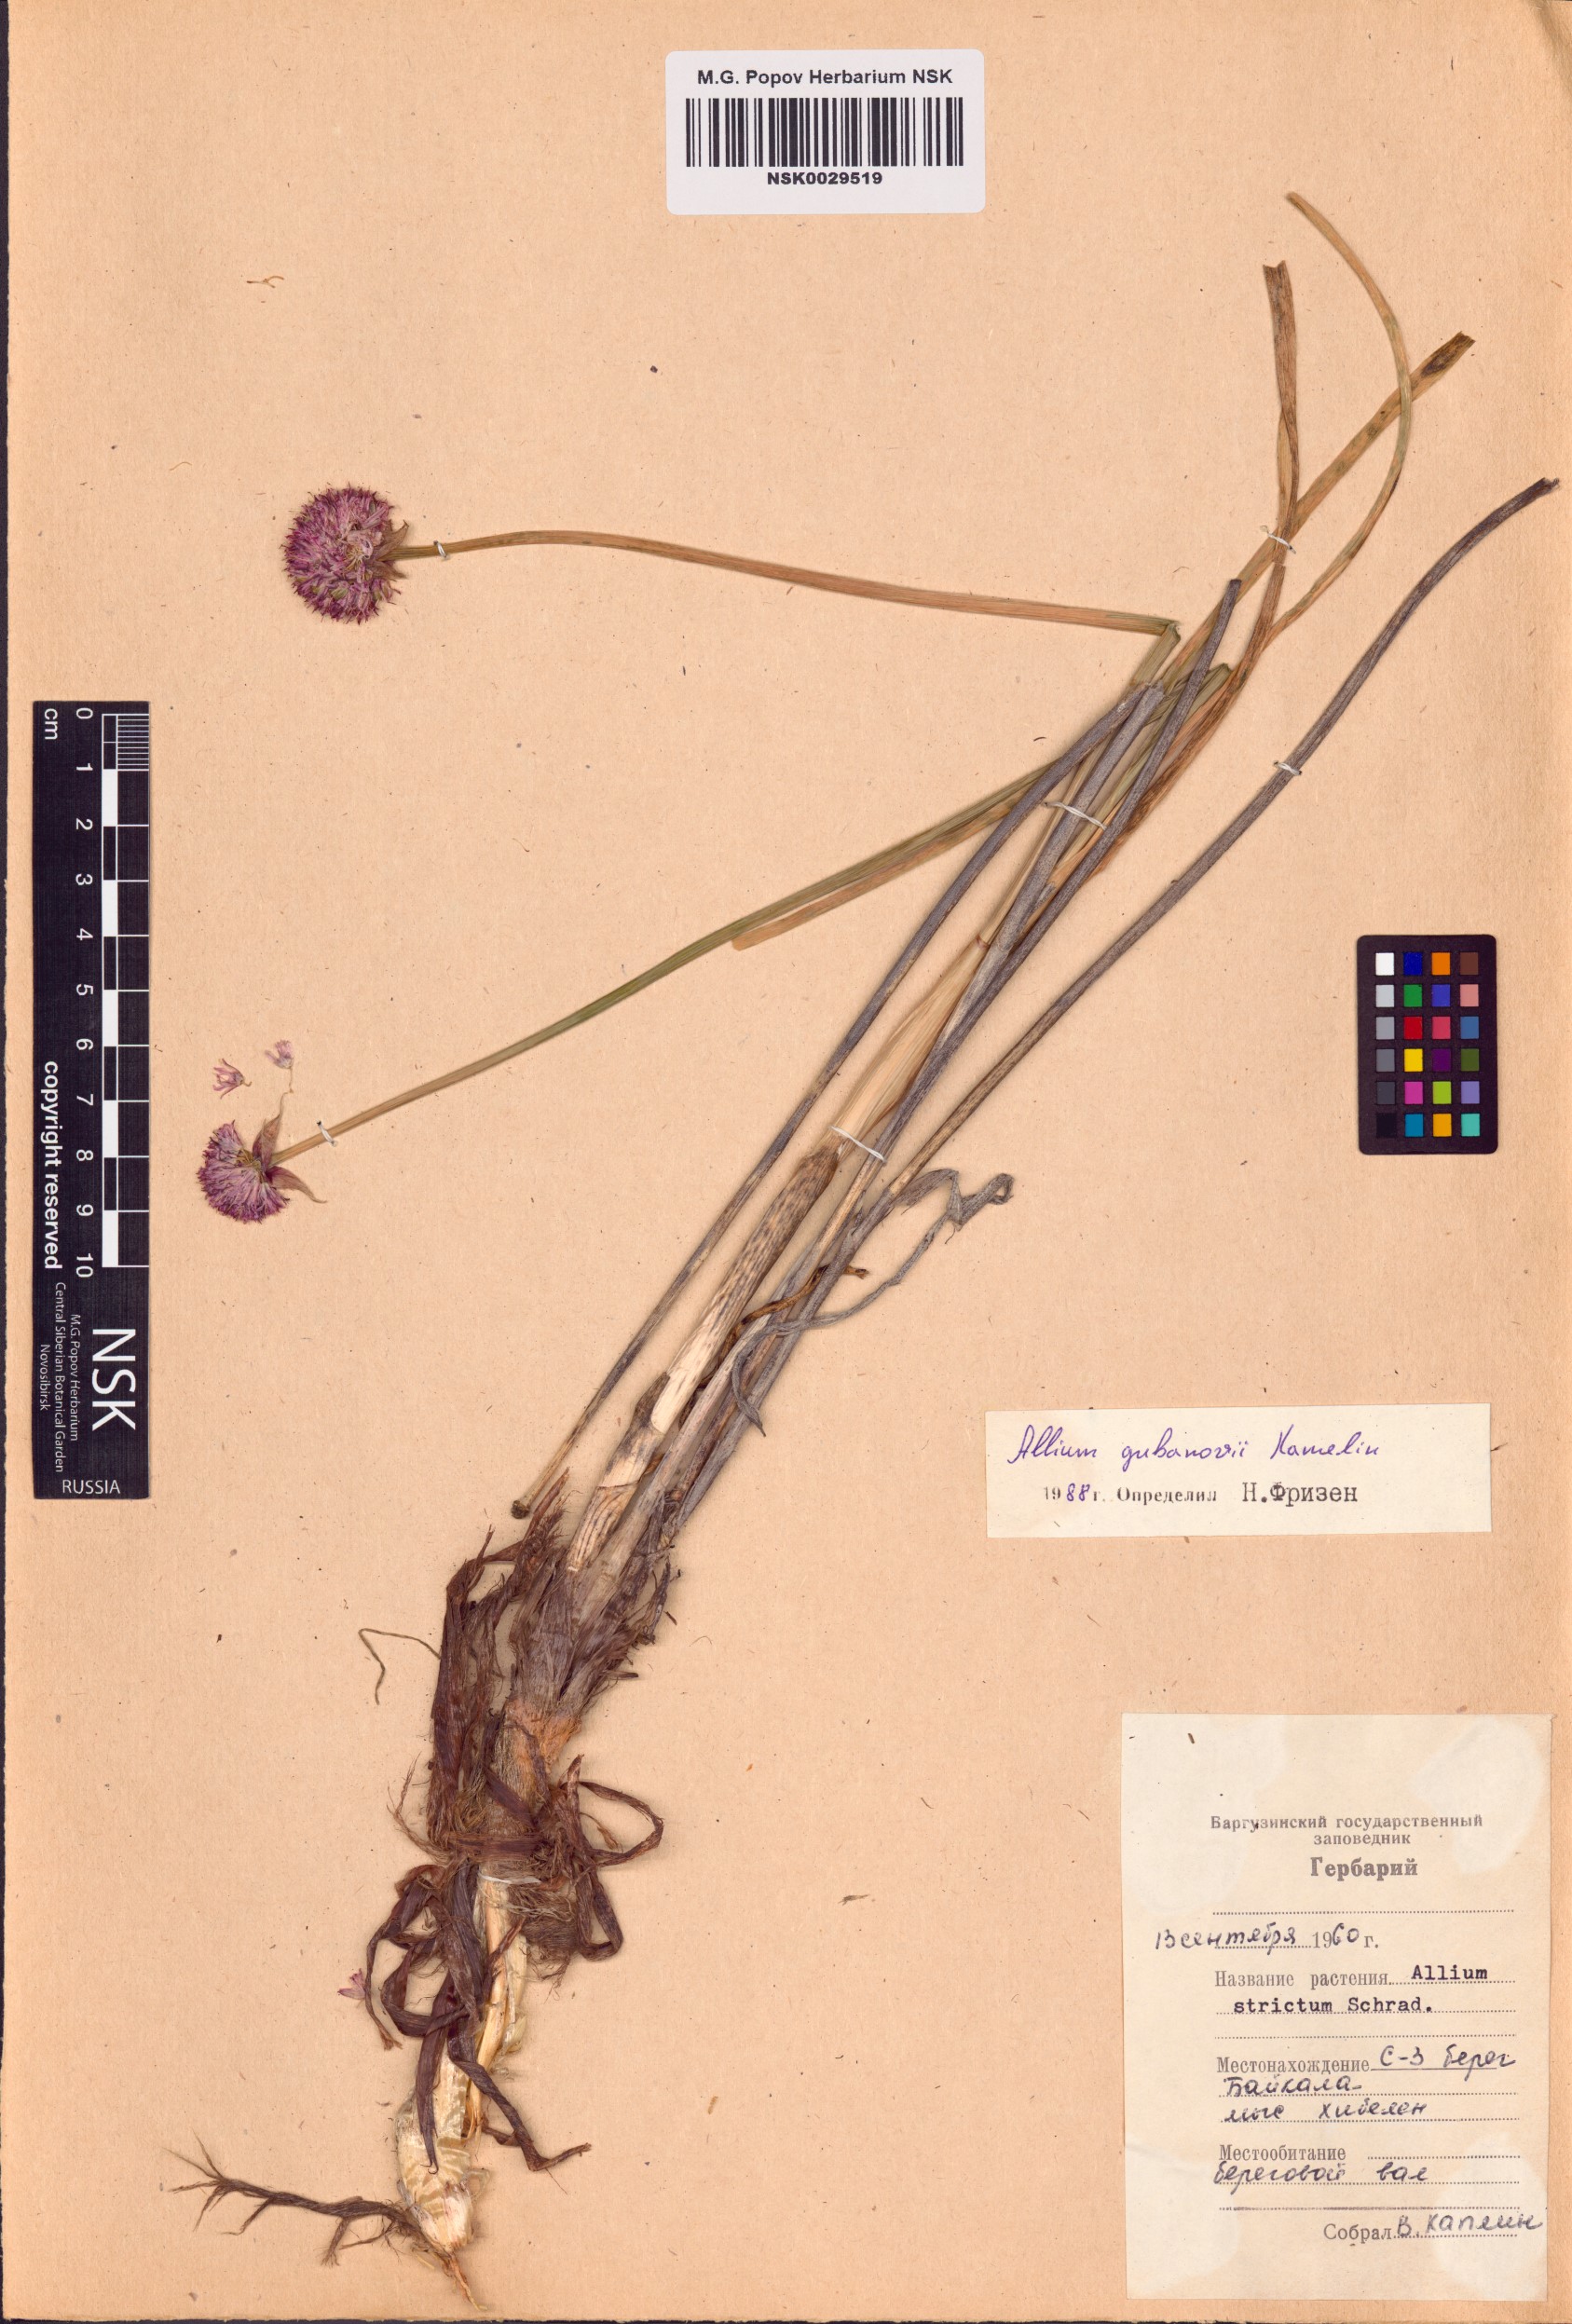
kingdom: Plantae
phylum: Tracheophyta
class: Liliopsida
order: Asparagales
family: Amaryllidaceae
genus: Allium
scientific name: Allium gubanovii
